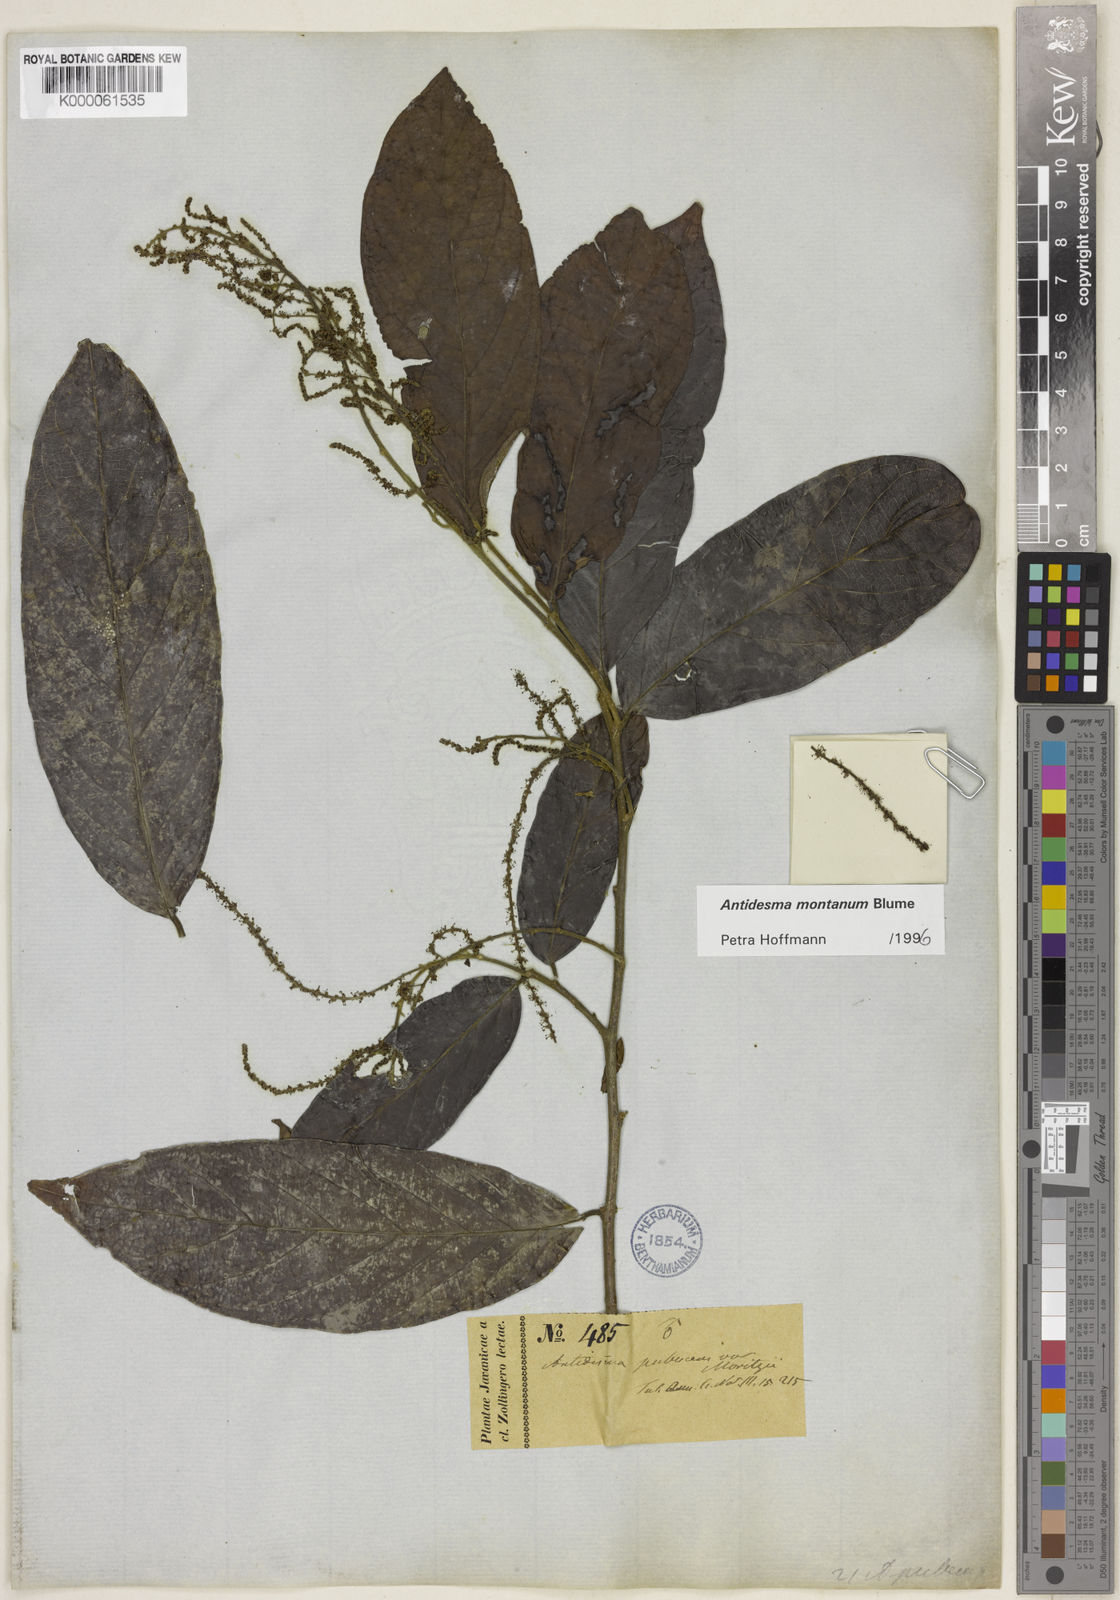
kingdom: Plantae
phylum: Tracheophyta
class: Magnoliopsida
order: Malpighiales
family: Phyllanthaceae
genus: Antidesma
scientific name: Antidesma montanum
